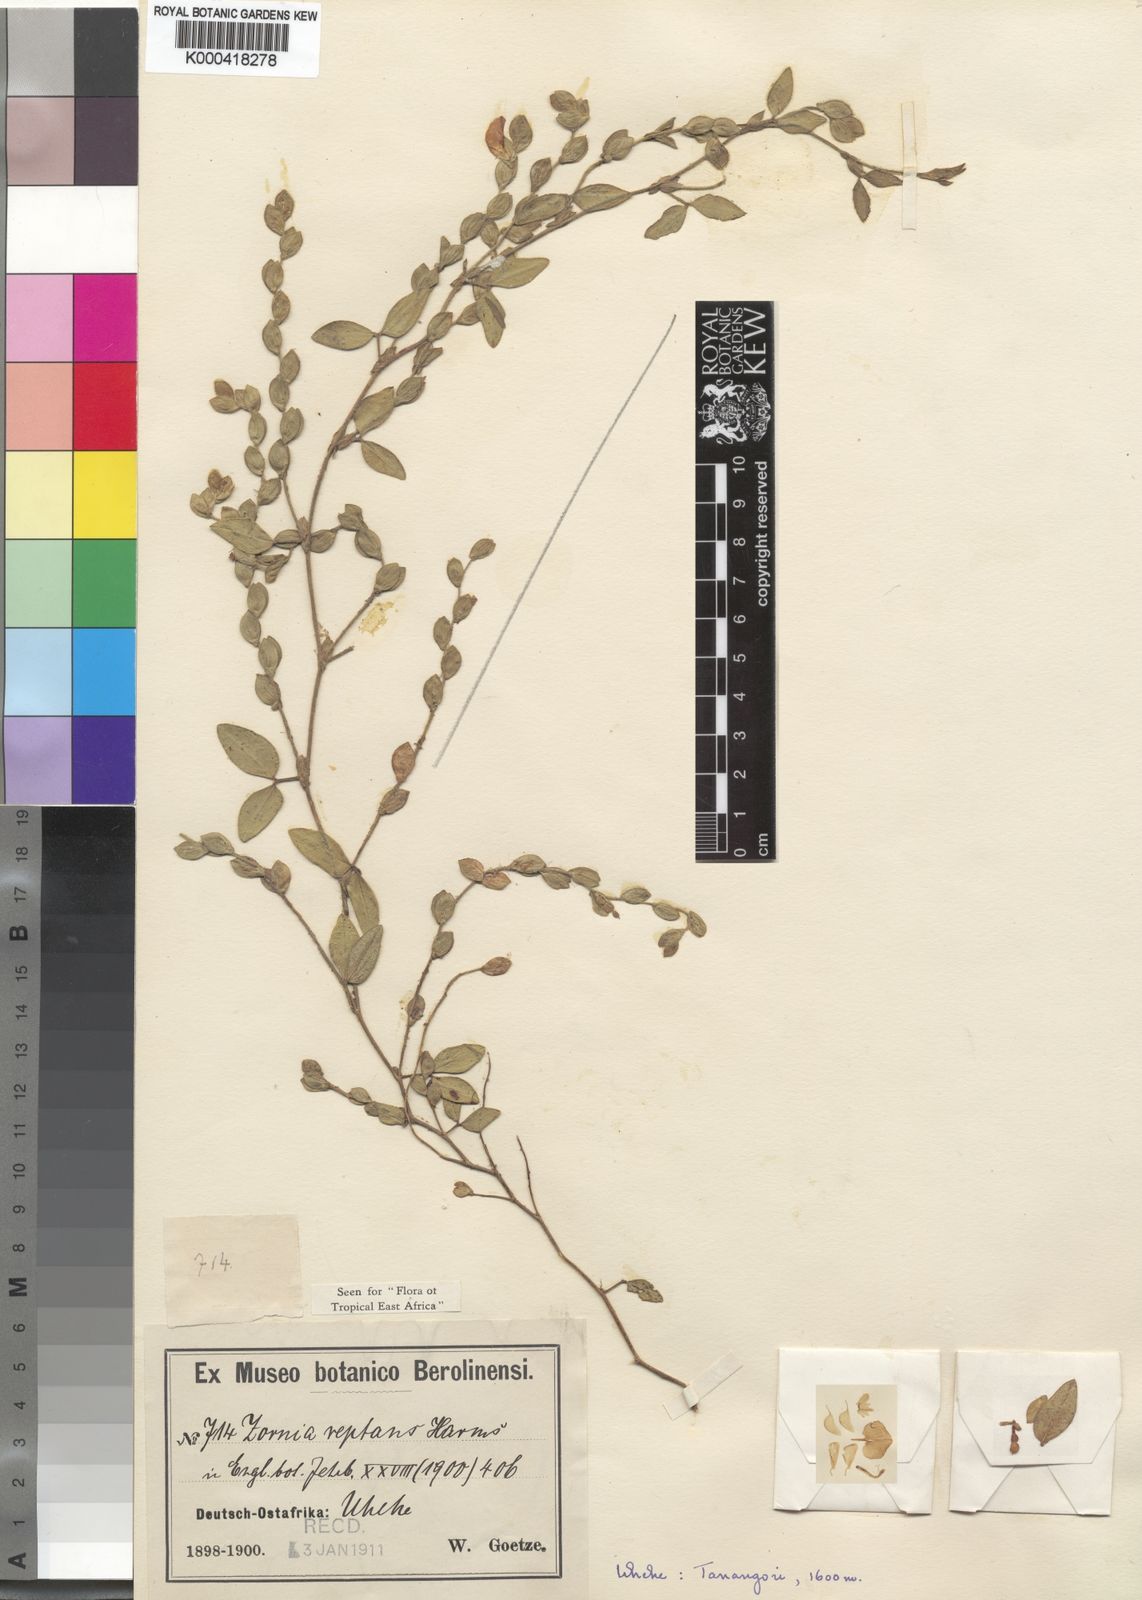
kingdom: Plantae
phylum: Tracheophyta
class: Magnoliopsida
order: Fabales
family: Fabaceae
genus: Zornia
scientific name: Zornia reptans
